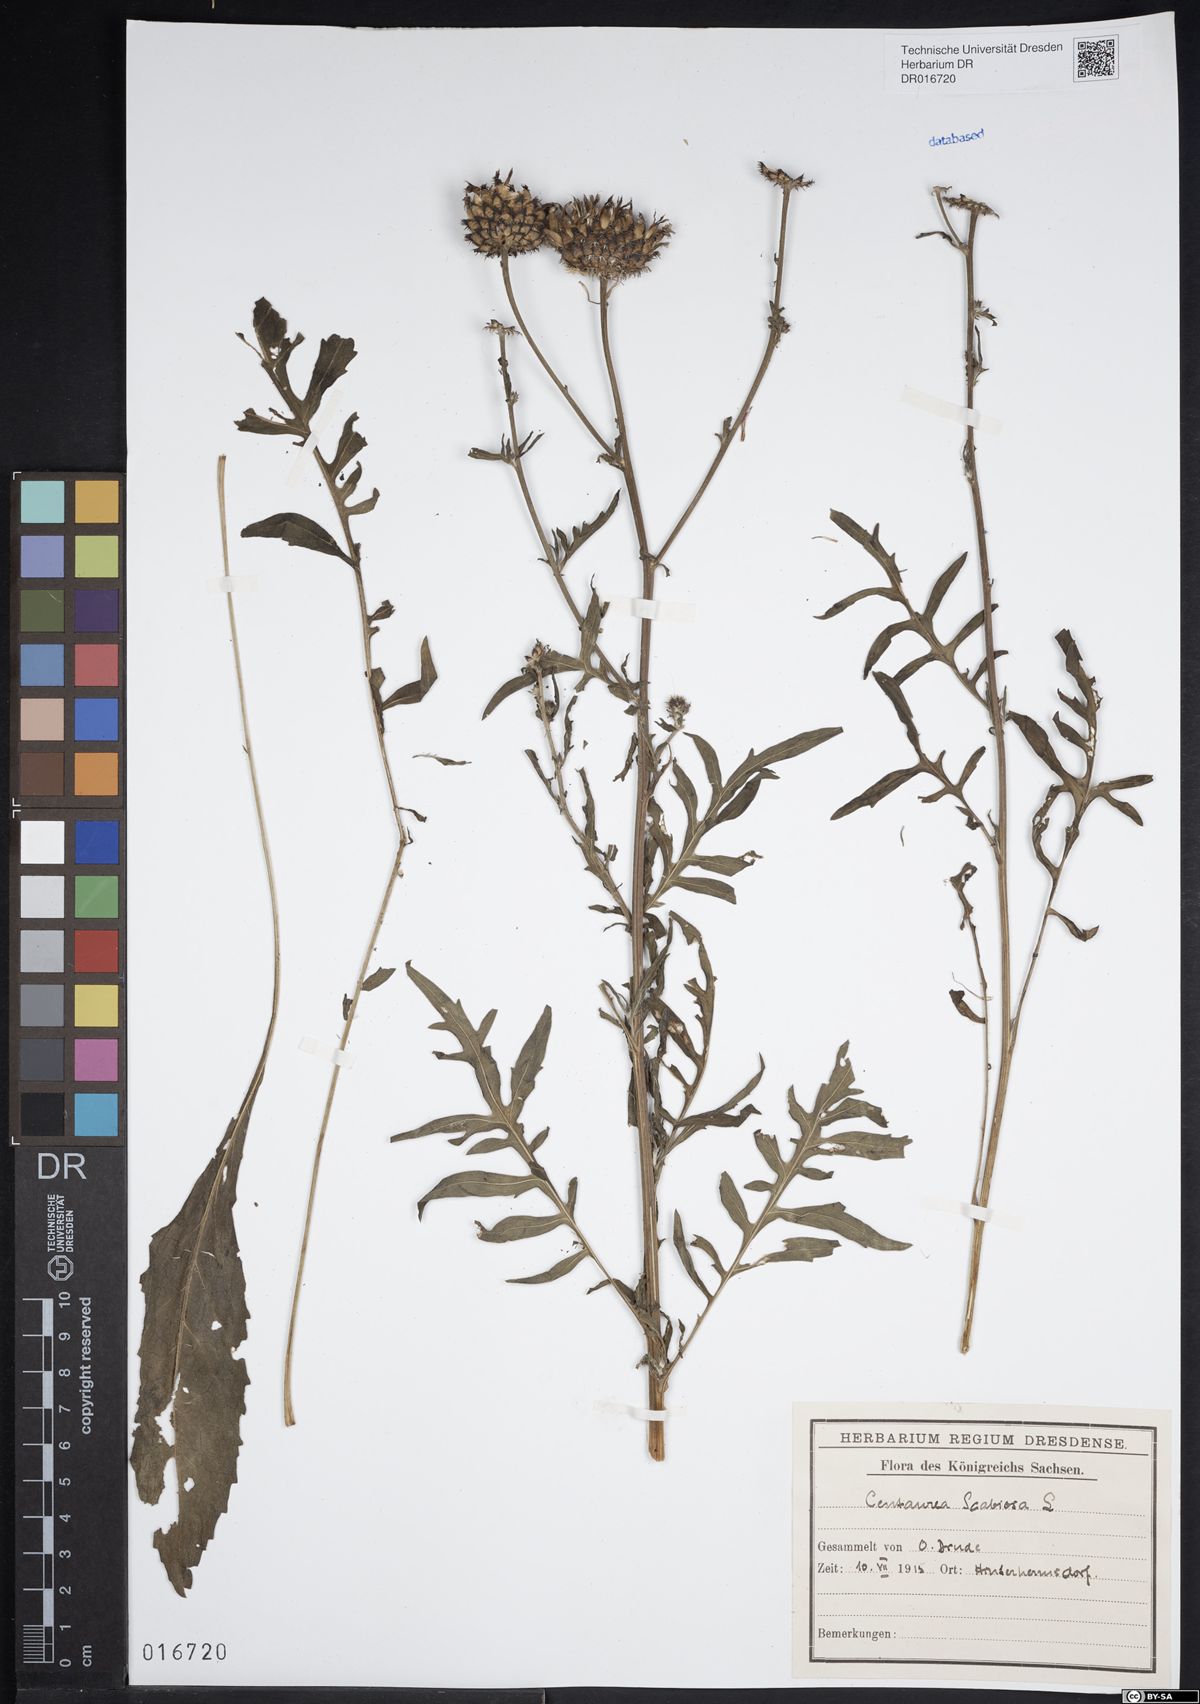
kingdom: Plantae
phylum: Tracheophyta
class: Magnoliopsida
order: Asterales
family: Asteraceae
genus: Centaurea
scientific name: Centaurea scabiosa
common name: Greater knapweed
